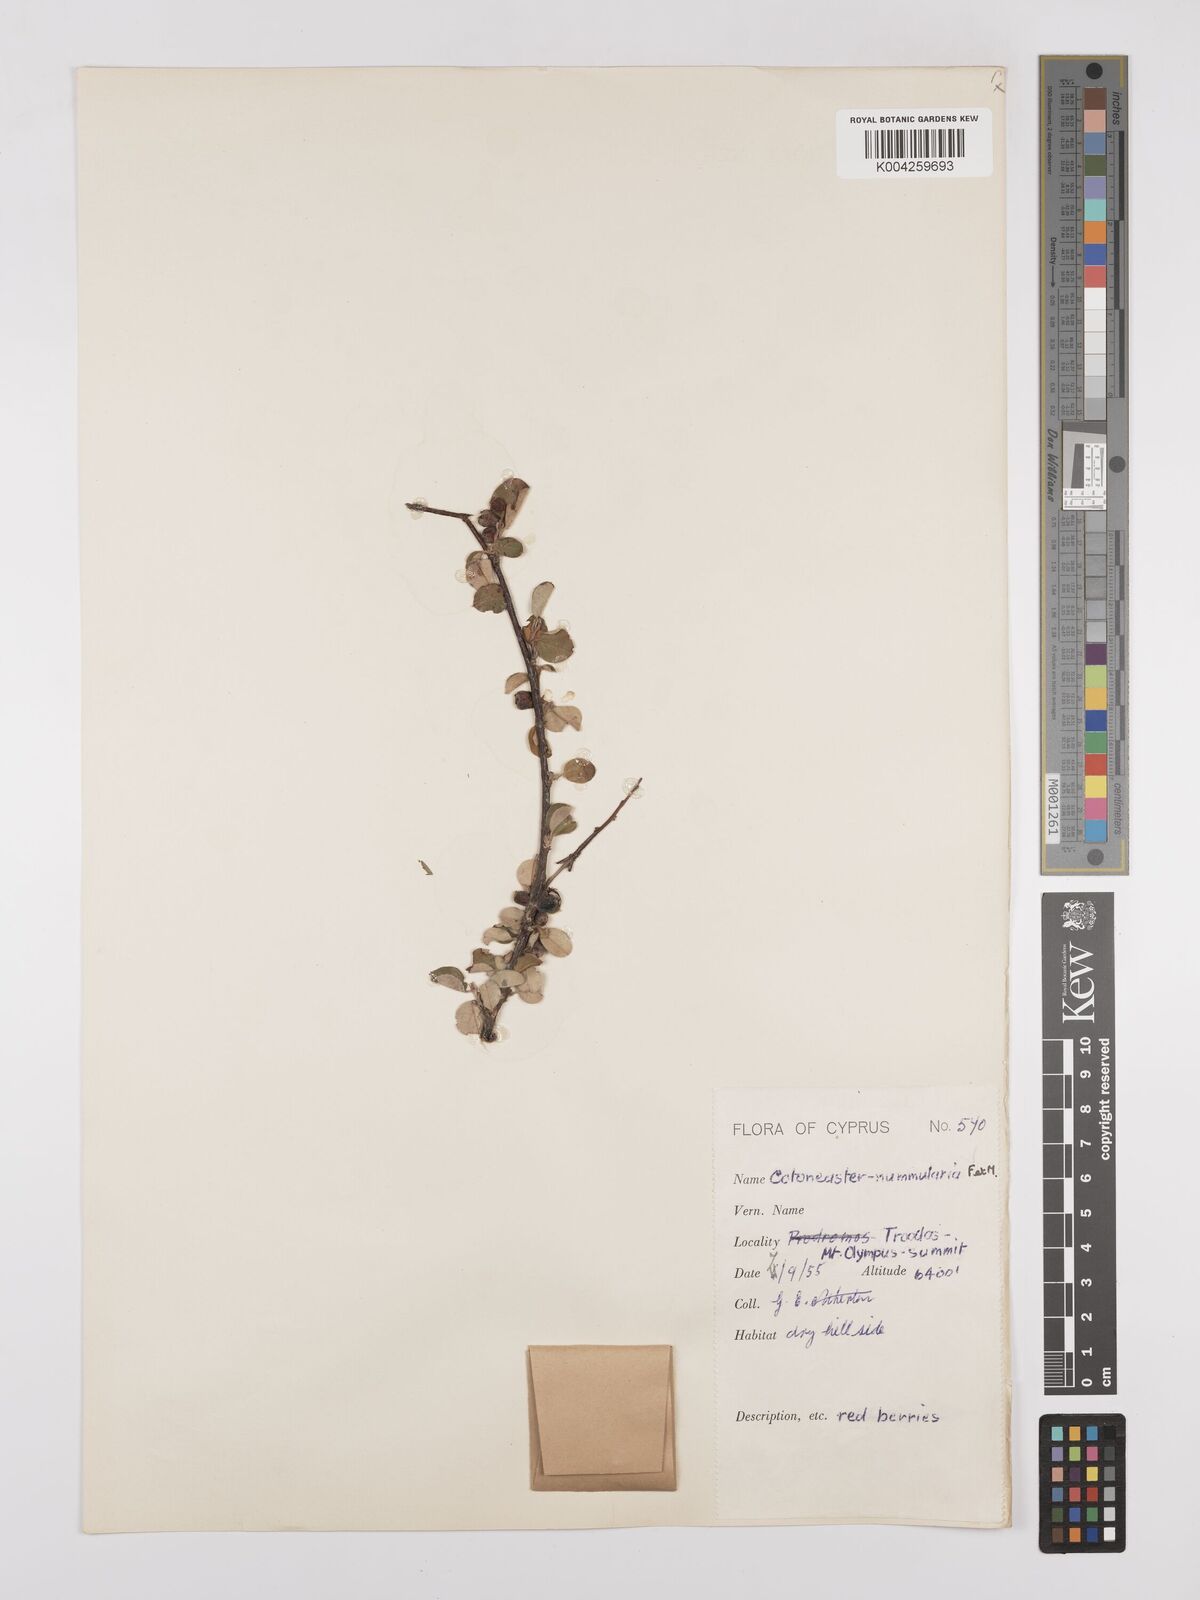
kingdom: Plantae
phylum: Tracheophyta
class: Magnoliopsida
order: Rosales
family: Rosaceae
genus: Cotoneaster
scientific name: Cotoneaster racemiflorus
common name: Cluster-flower cotoneaster
